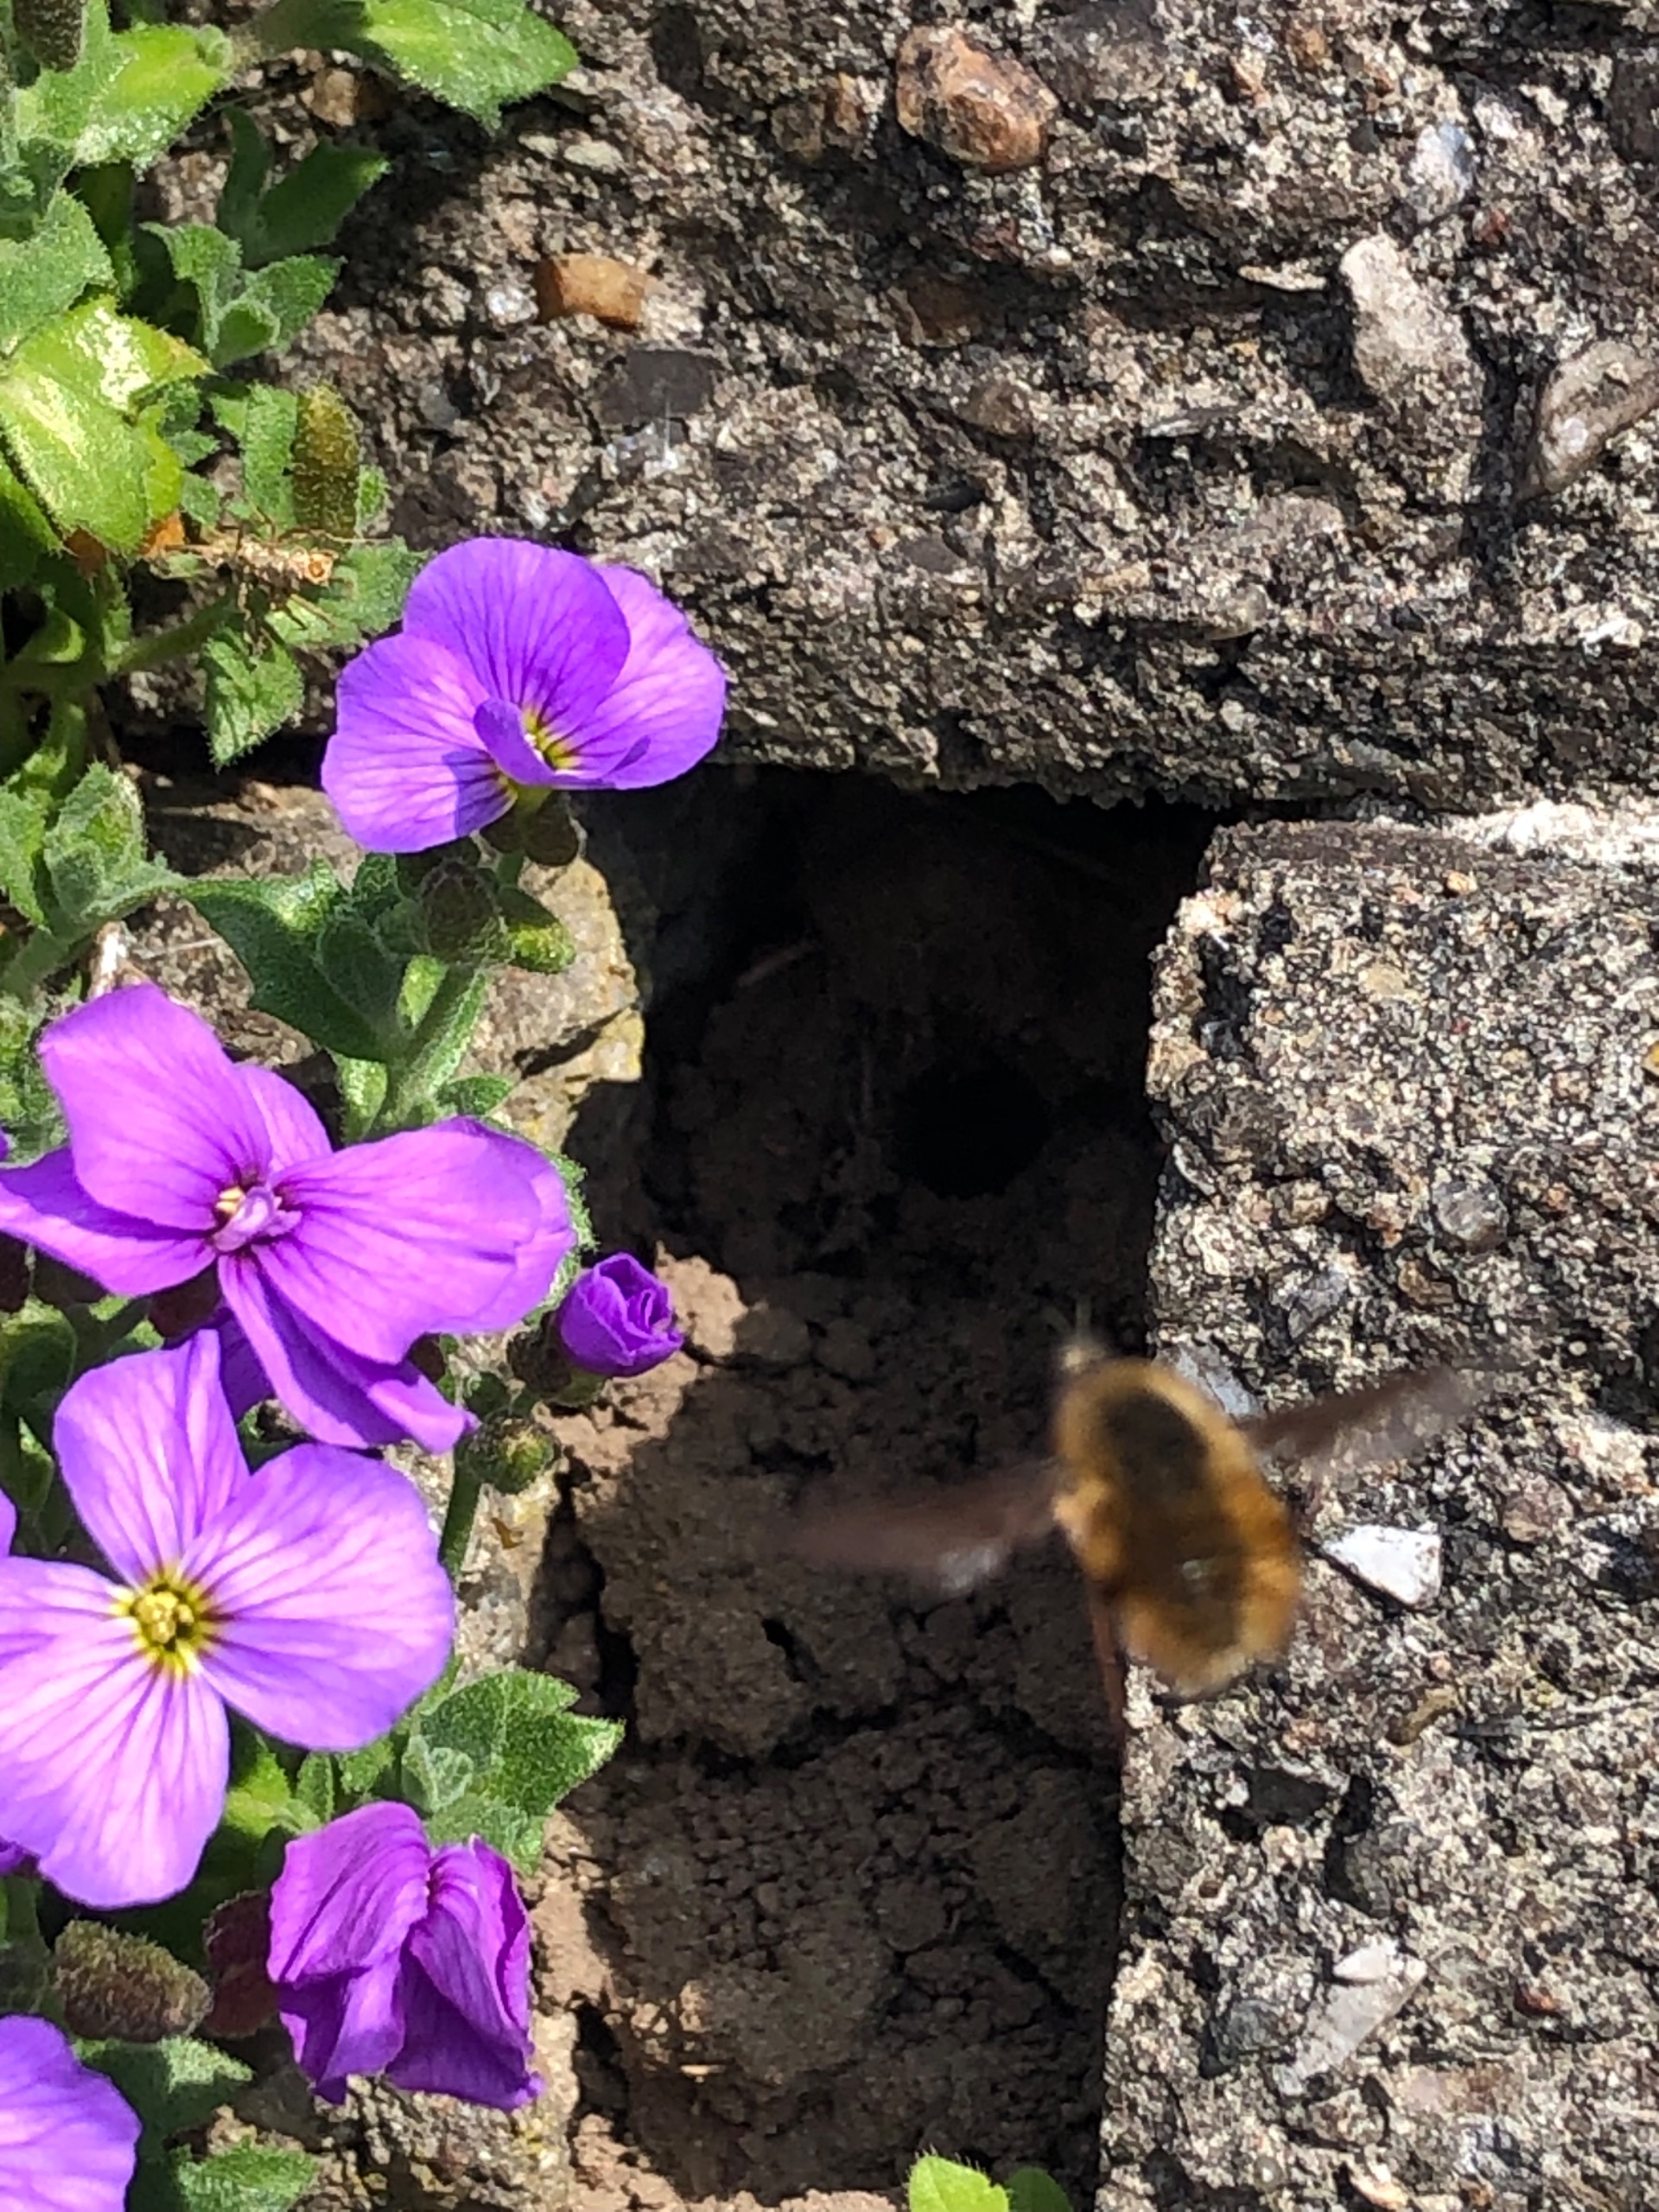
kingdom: Animalia
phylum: Arthropoda
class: Insecta
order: Diptera
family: Bombyliidae
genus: Bombylius
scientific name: Bombylius major
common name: Stor humleflue
